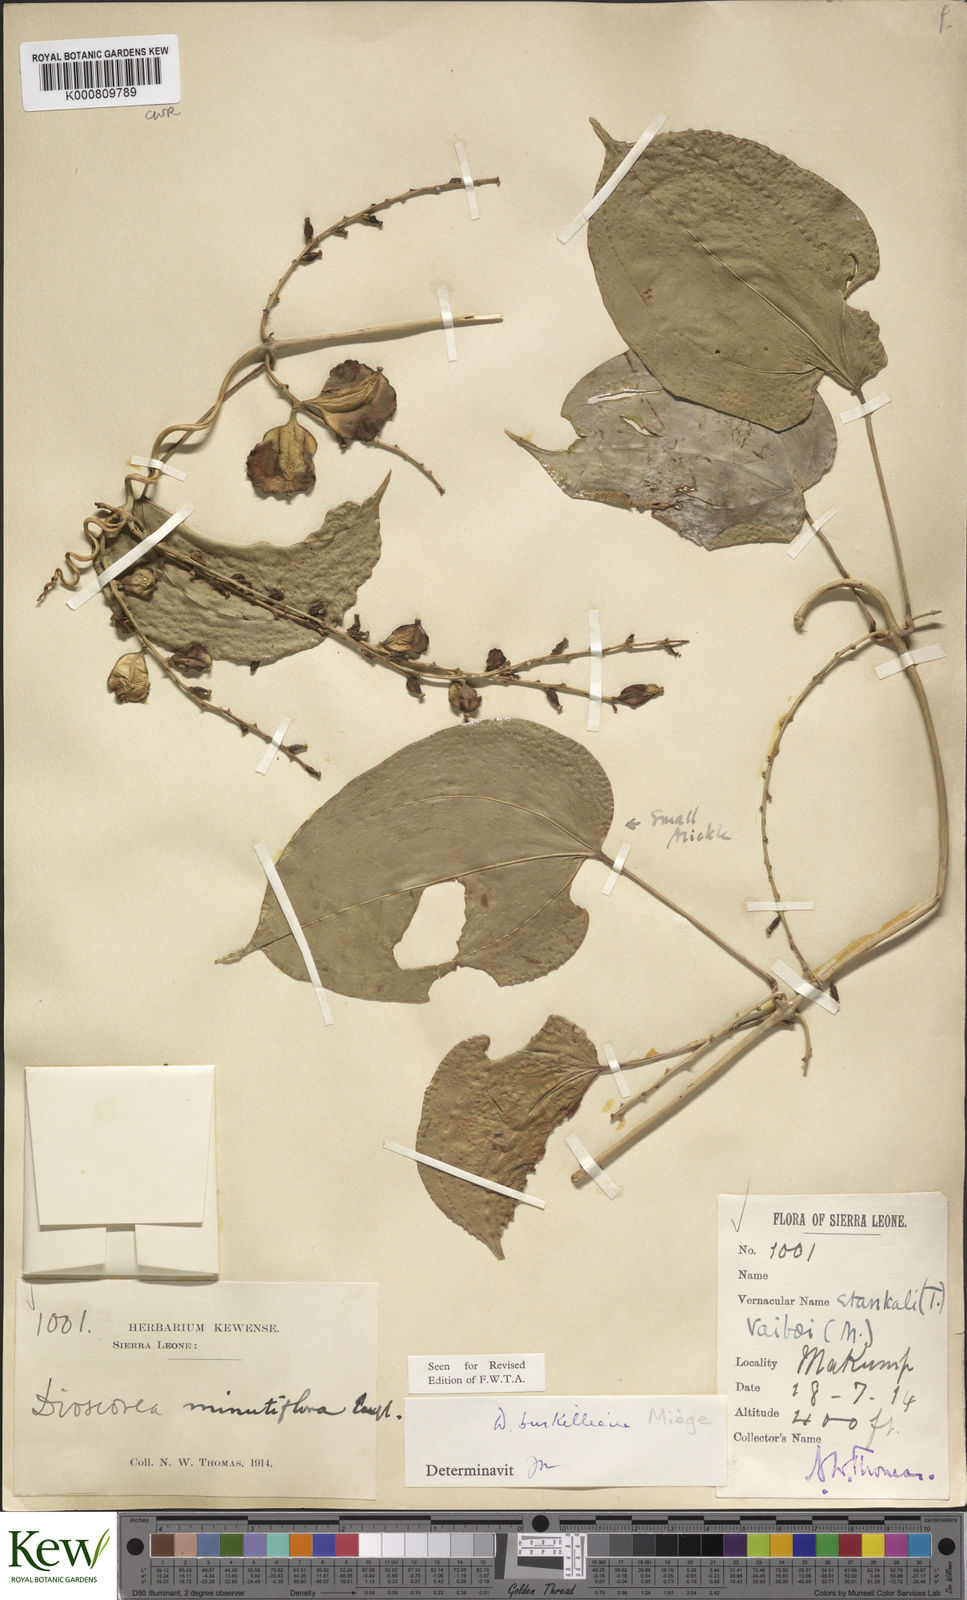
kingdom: Plantae
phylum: Tracheophyta
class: Liliopsida
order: Dioscoreales
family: Dioscoreaceae
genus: Dioscorea
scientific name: Dioscorea
